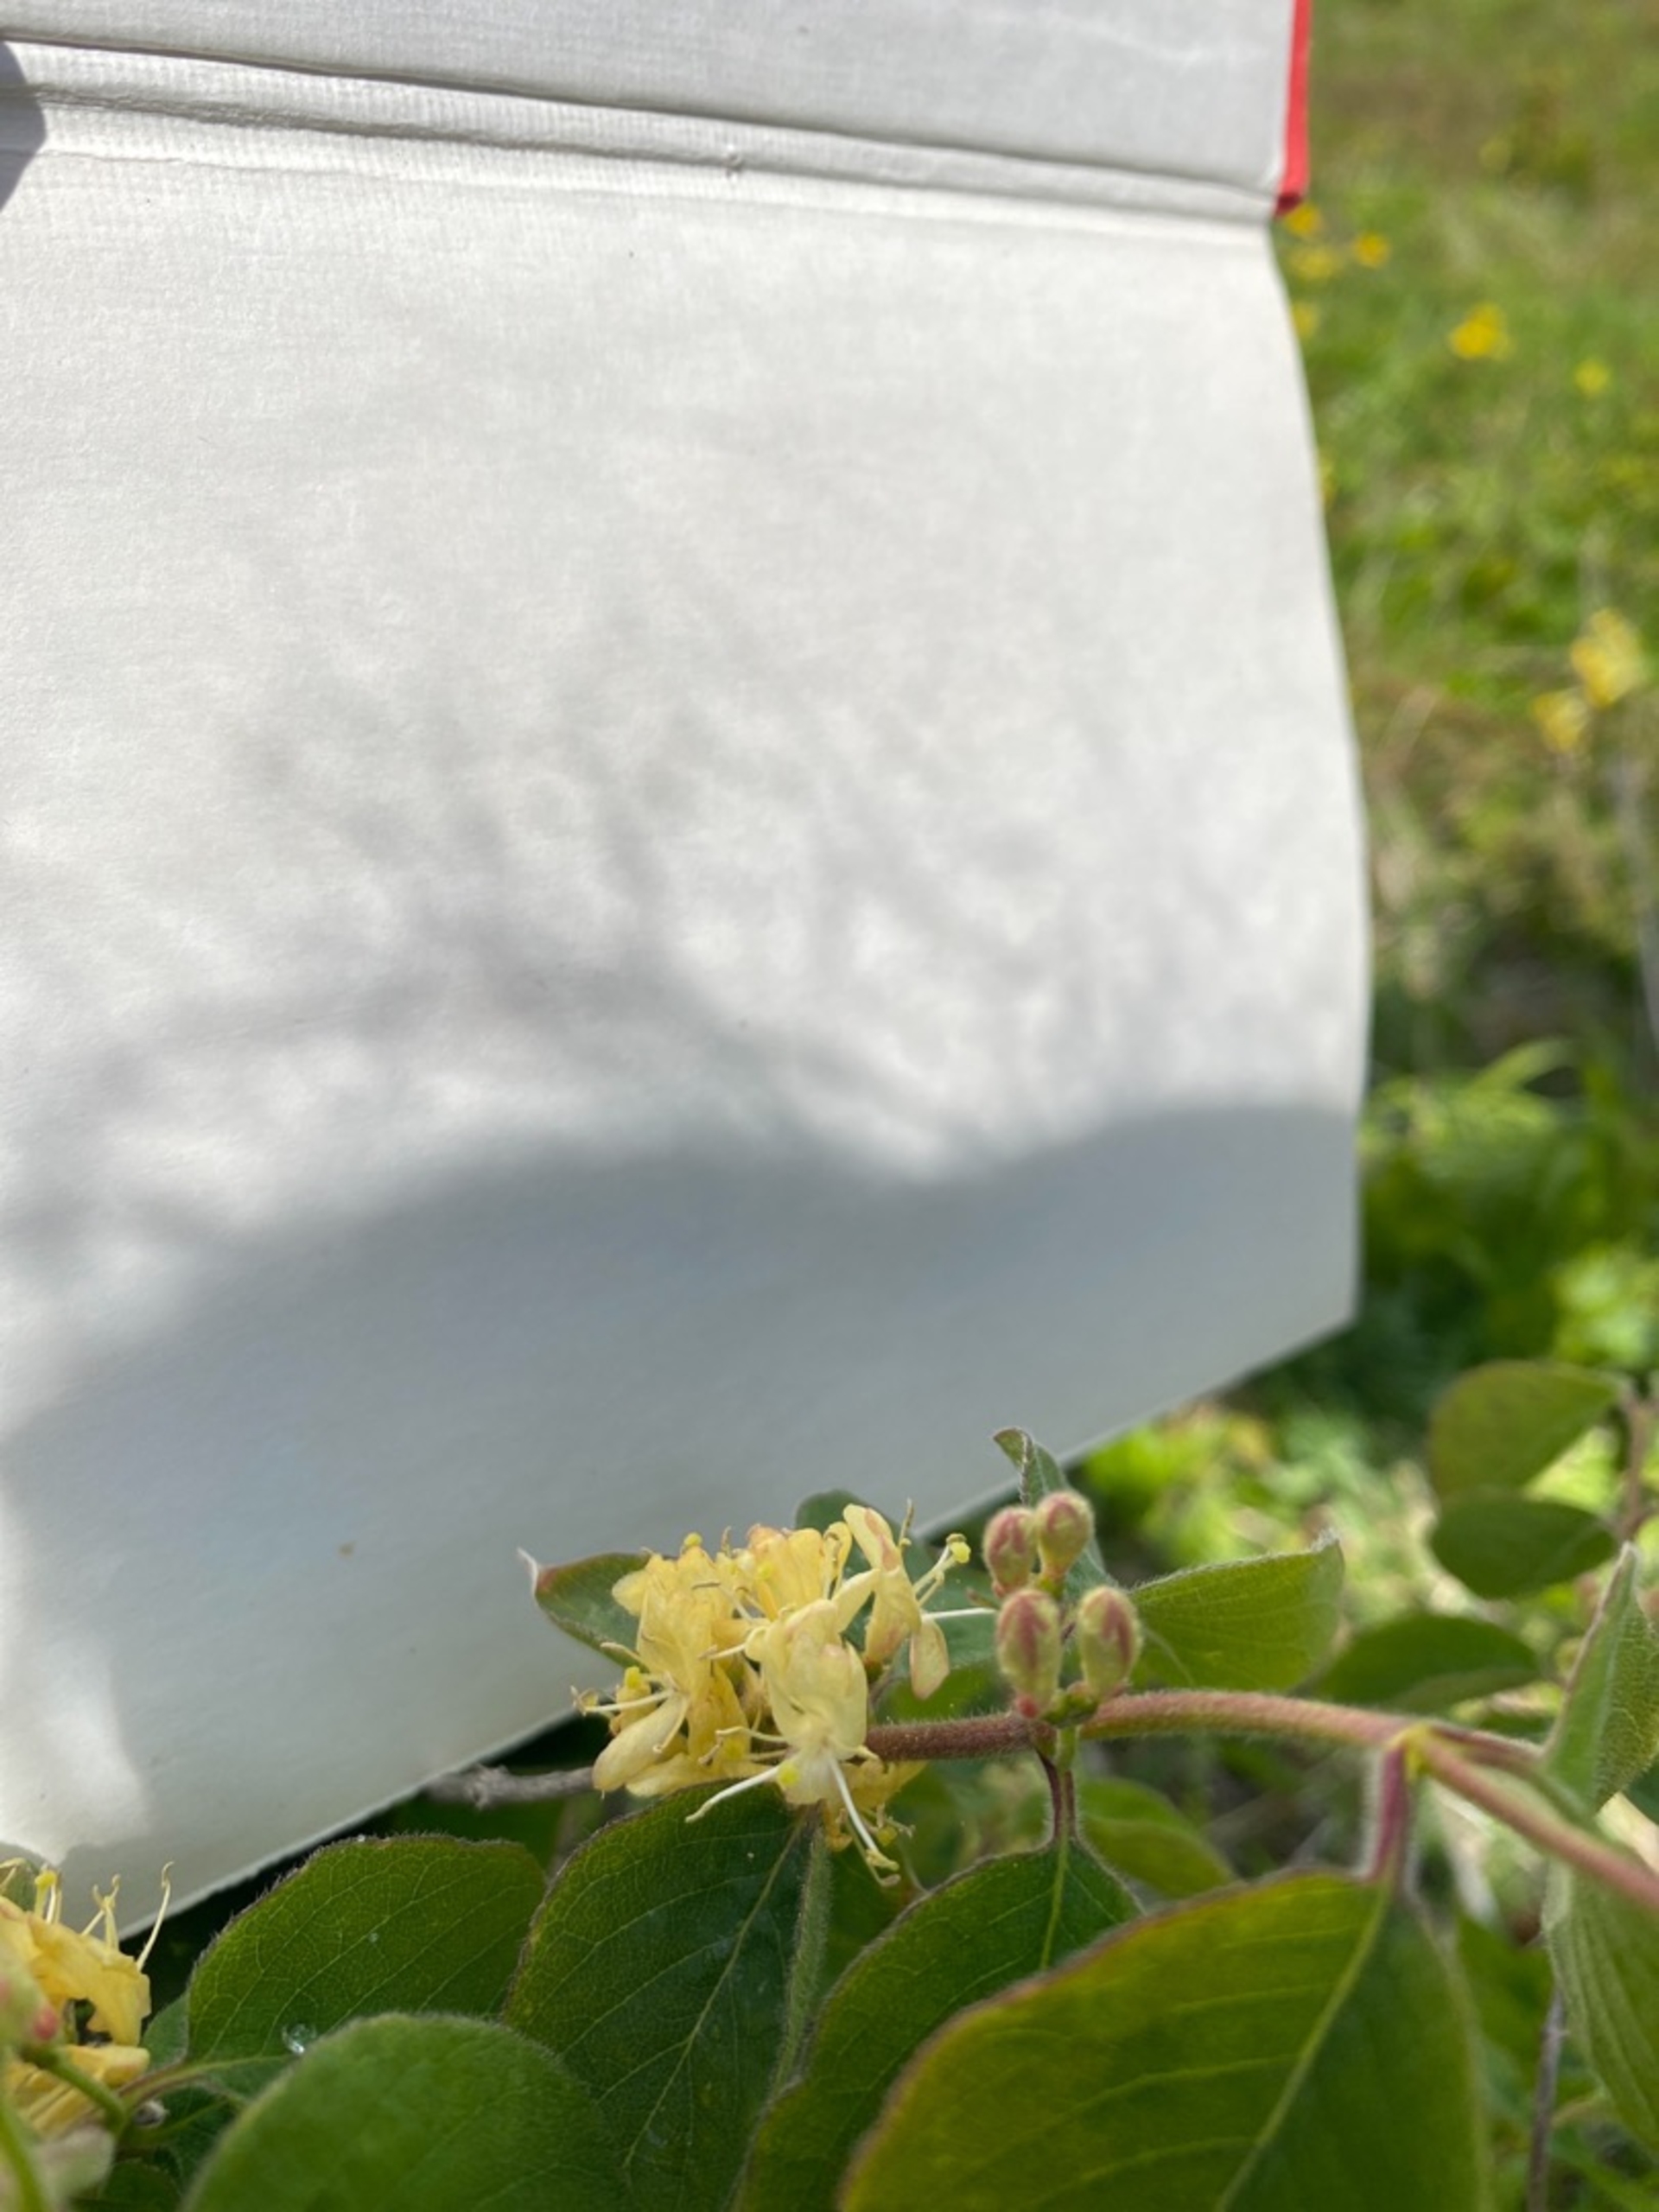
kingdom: Plantae
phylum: Tracheophyta
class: Magnoliopsida
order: Dipsacales
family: Caprifoliaceae
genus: Lonicera
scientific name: Lonicera xylosteum
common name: Dunet gedeblad
